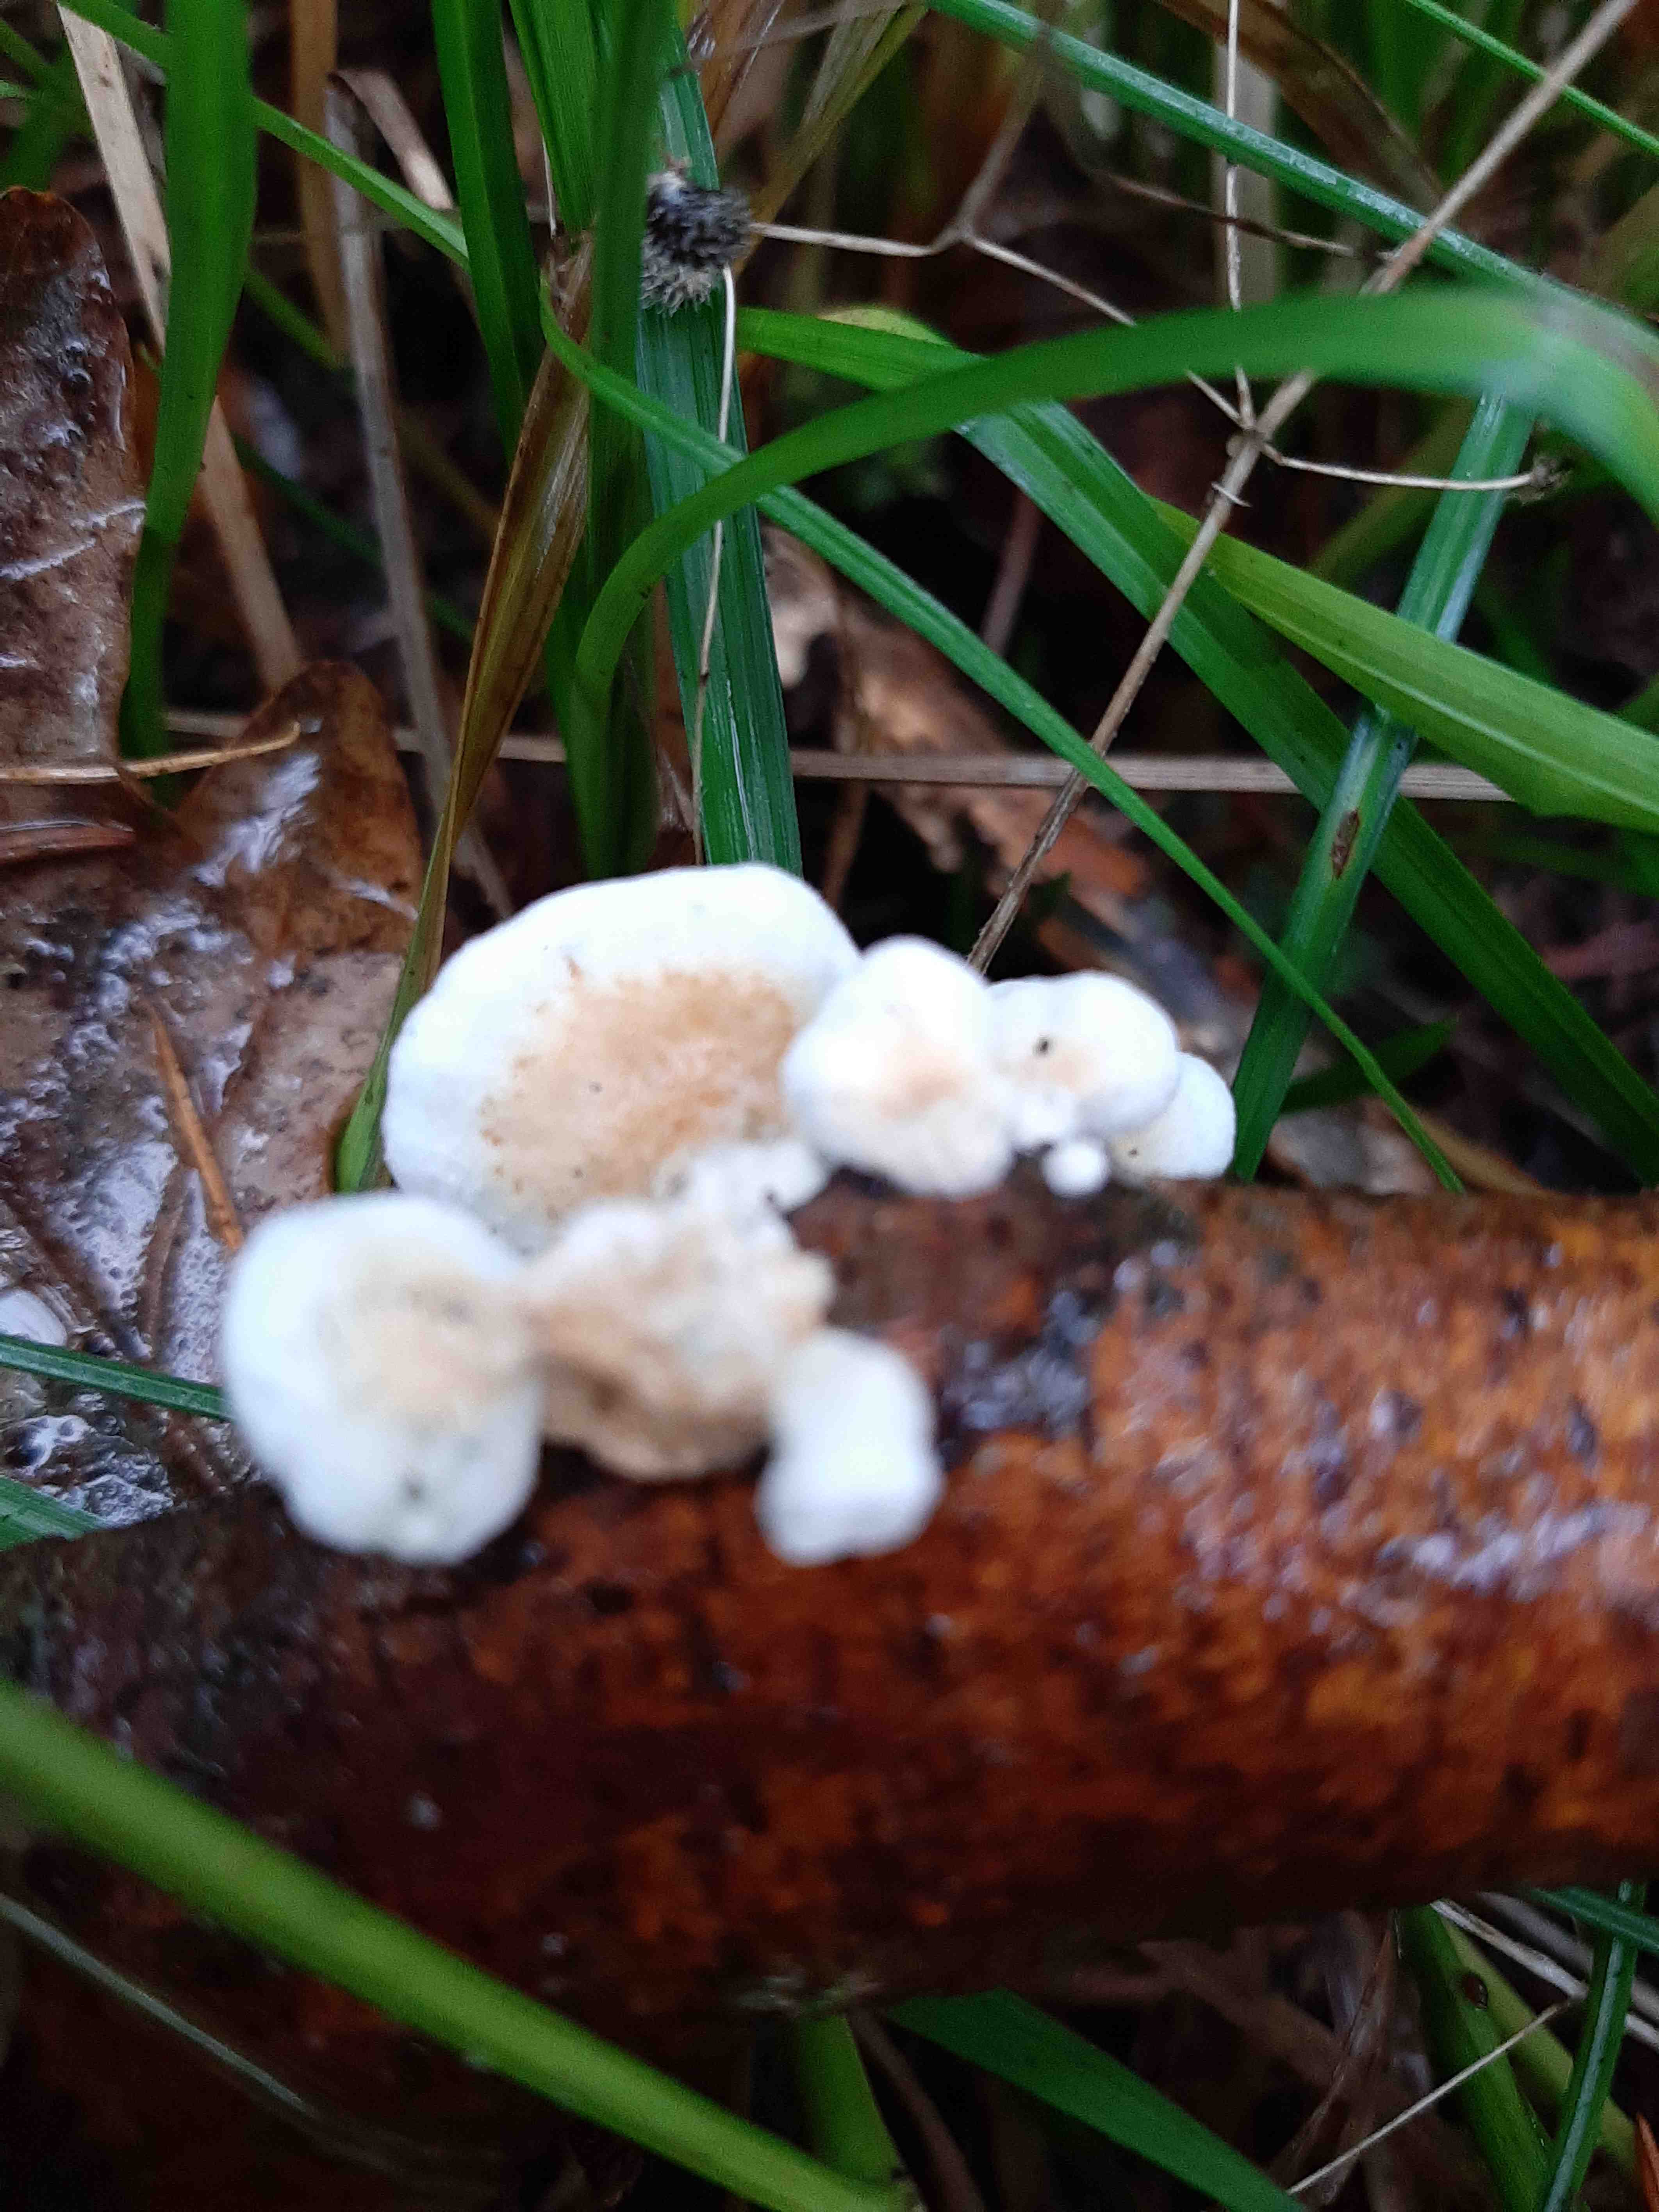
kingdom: Fungi
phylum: Basidiomycota
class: Agaricomycetes
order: Amylocorticiales
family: Amylocorticiaceae
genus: Plicaturopsis
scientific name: Plicaturopsis crispa
